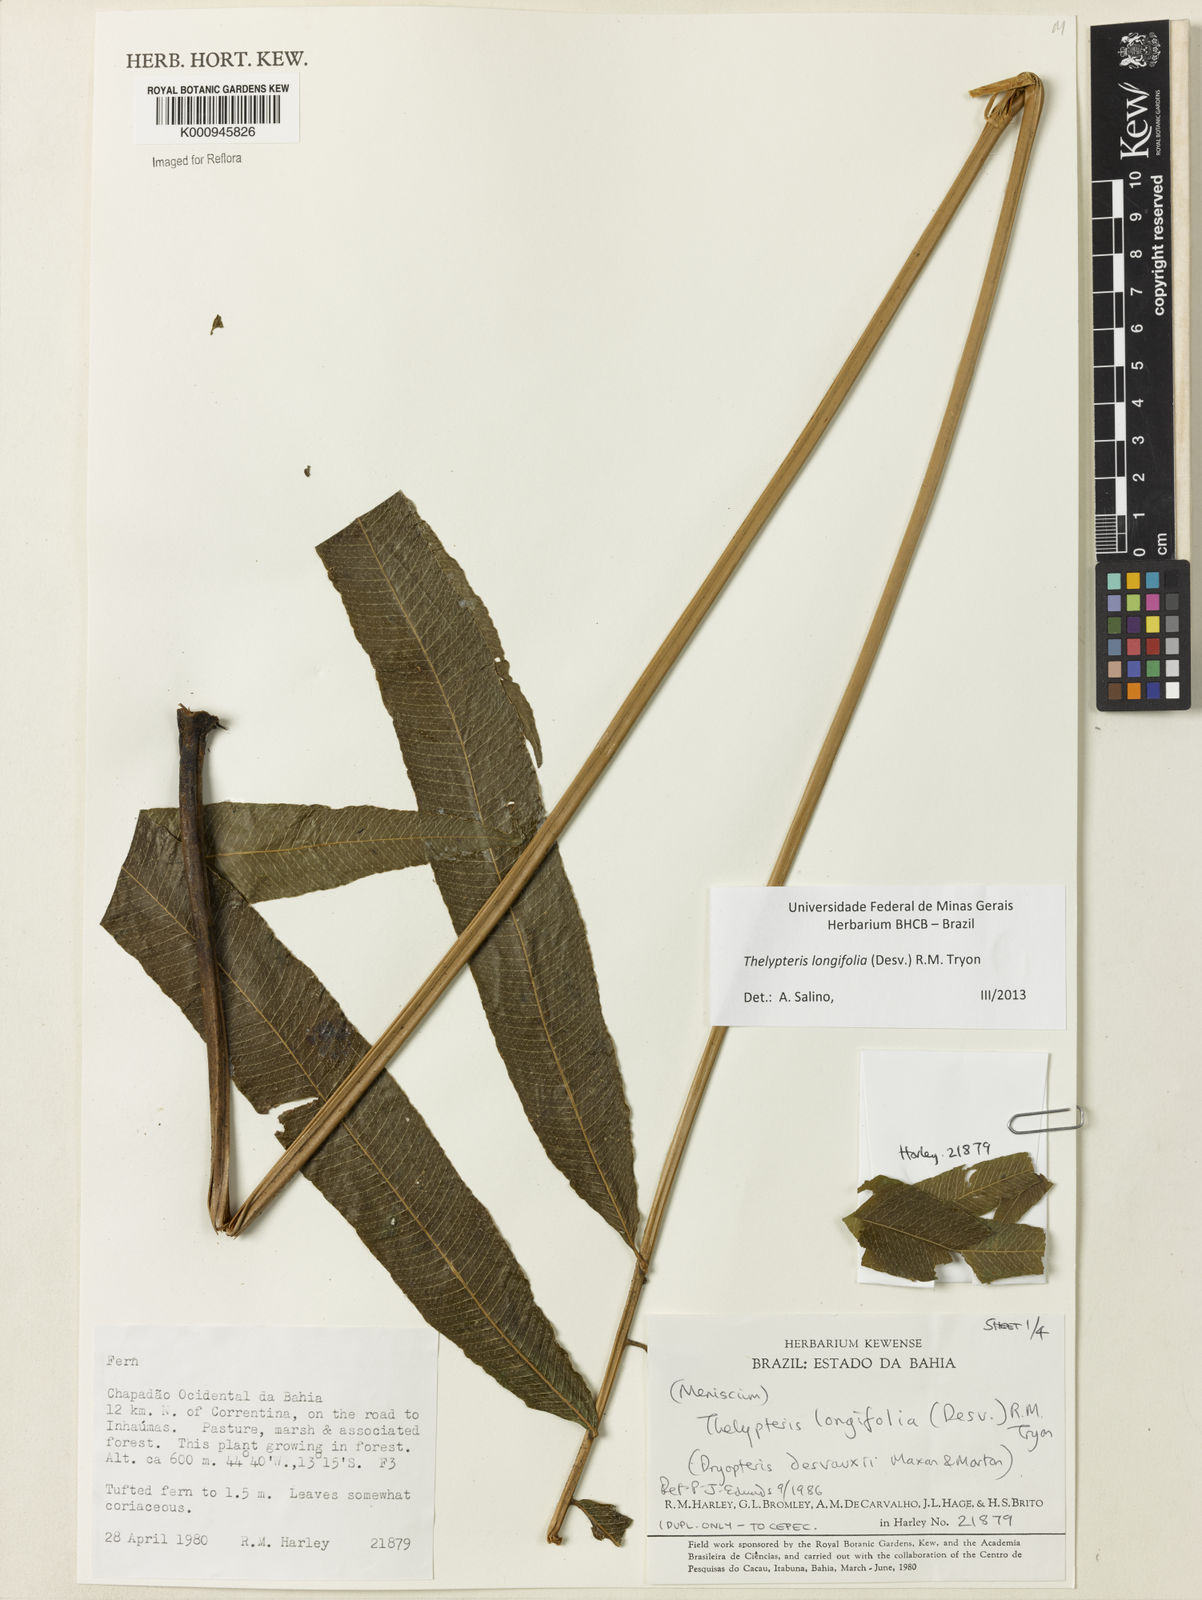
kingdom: Plantae
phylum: Tracheophyta
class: Polypodiopsida
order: Polypodiales
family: Thelypteridaceae
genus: Meniscium
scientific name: Meniscium longifolium
